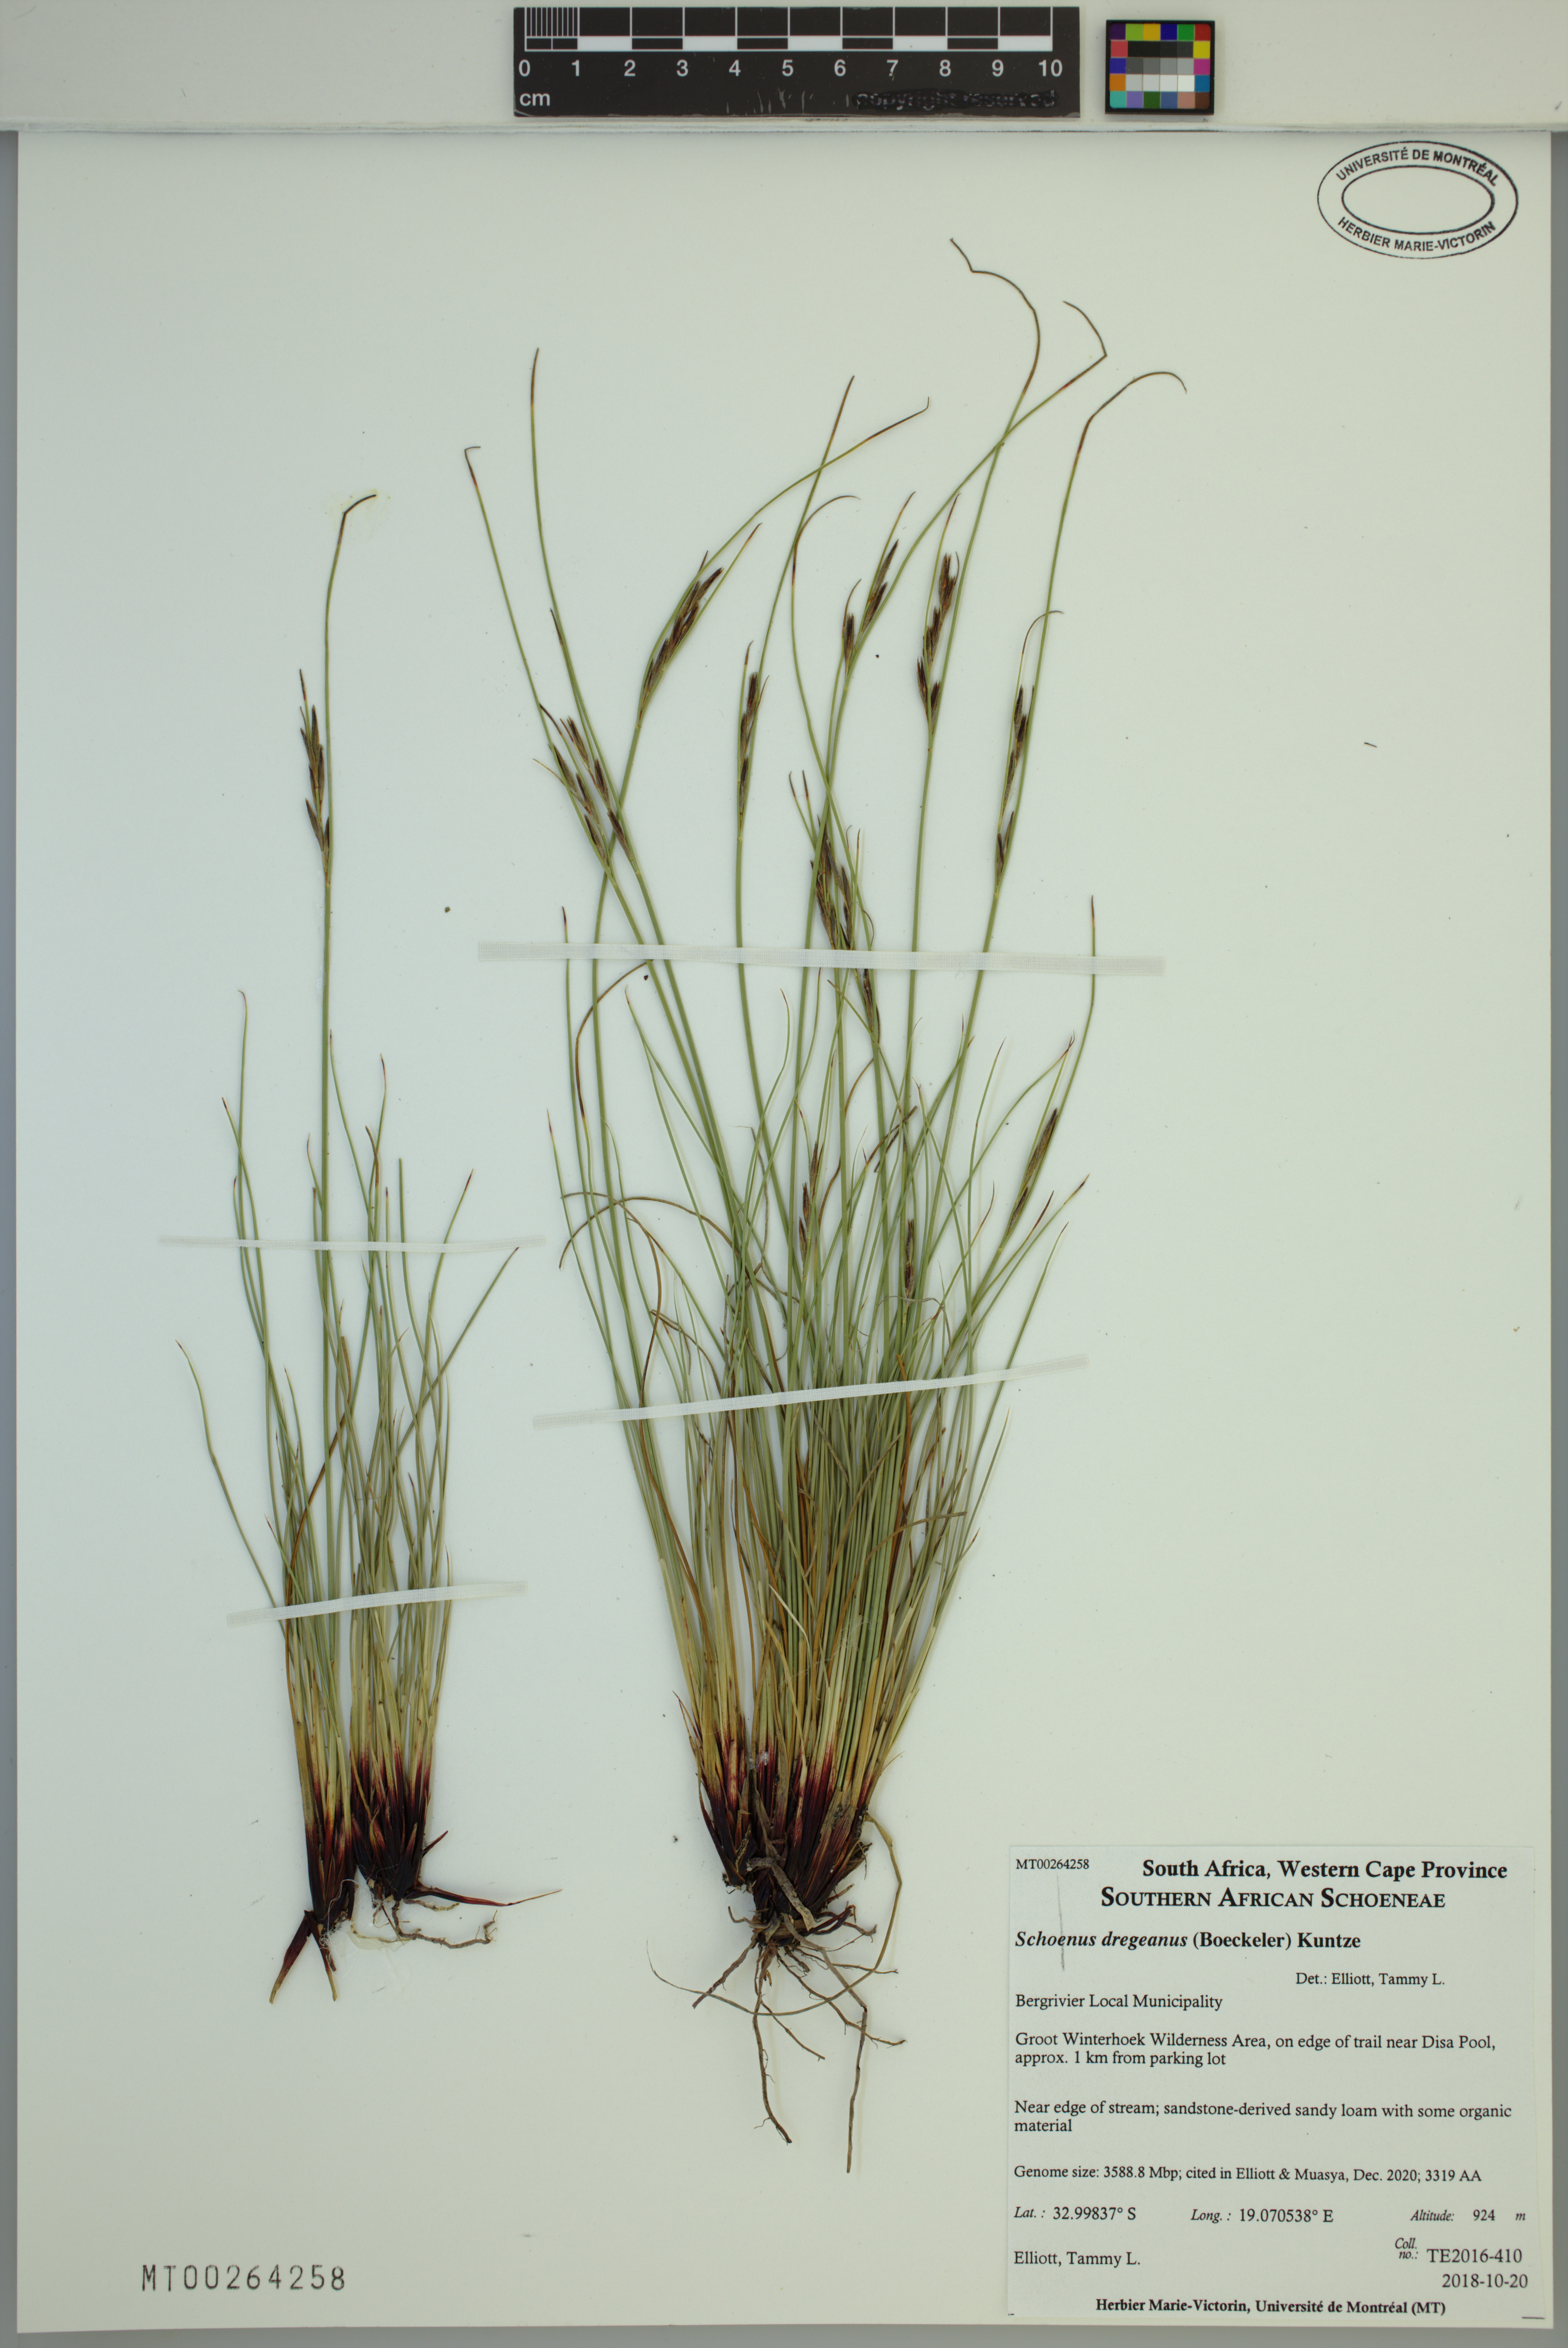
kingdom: Plantae
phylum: Tracheophyta
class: Liliopsida
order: Poales
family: Cyperaceae
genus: Schoenus
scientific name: Schoenus dregeanus
